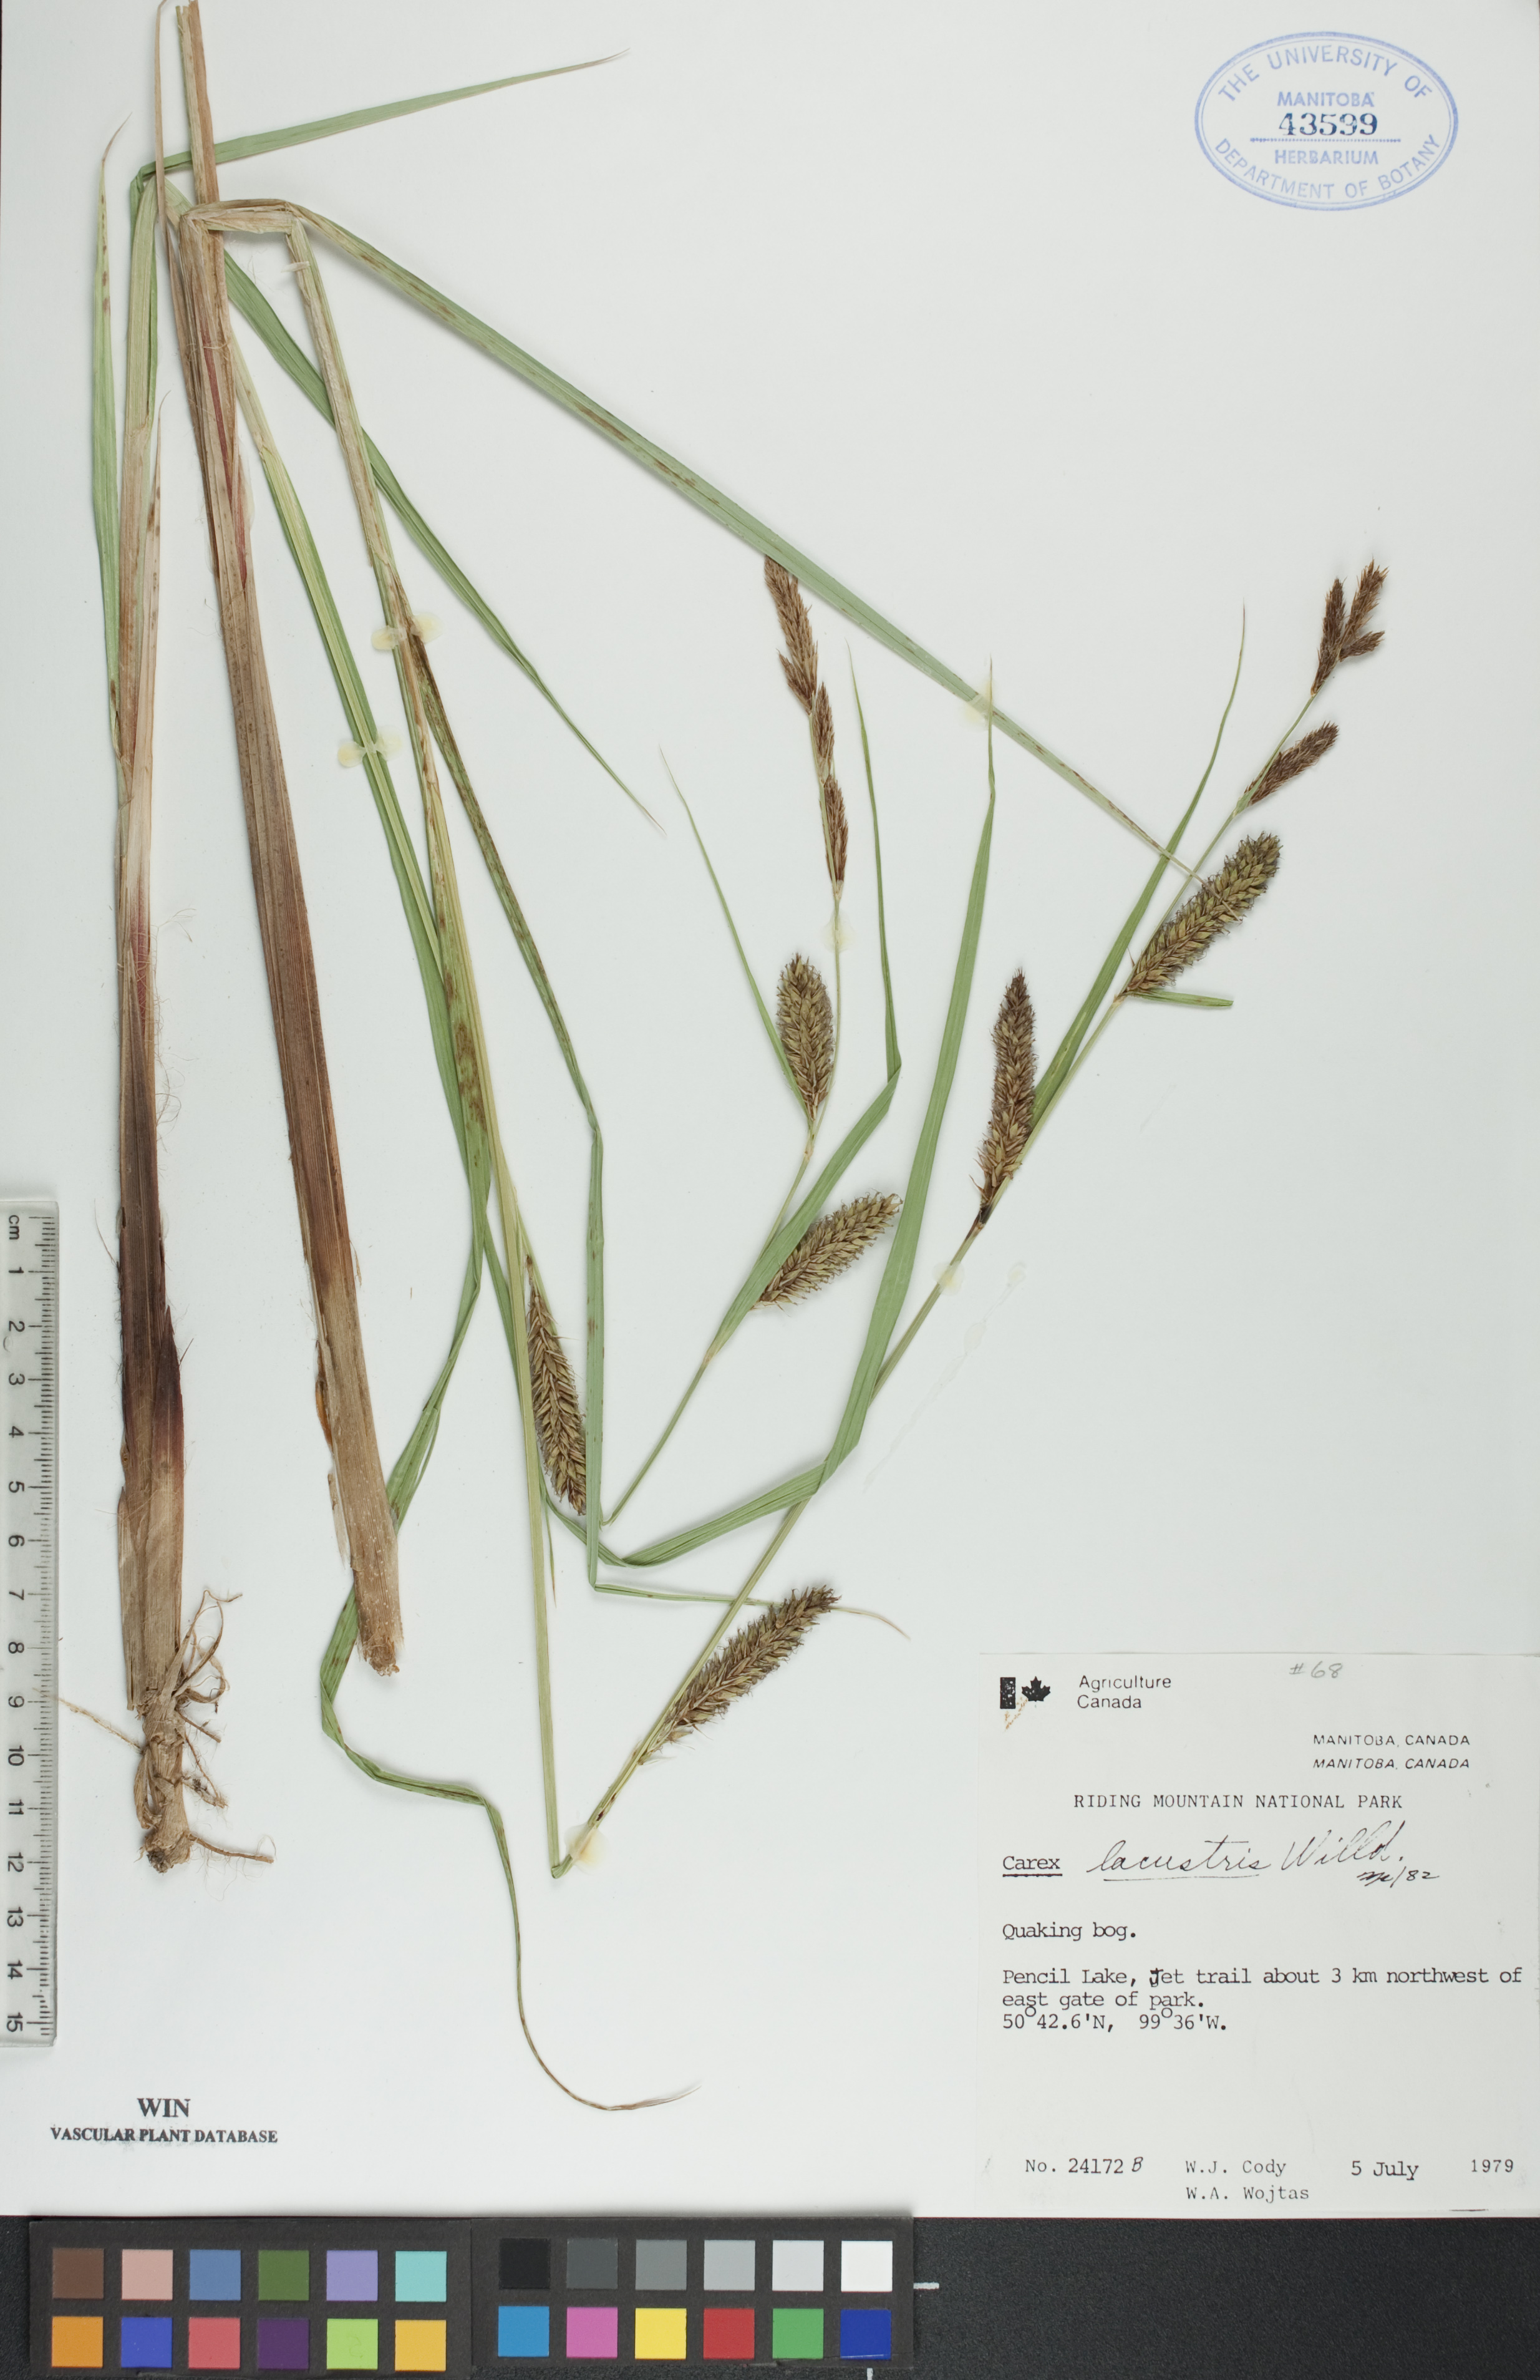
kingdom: Plantae
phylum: Tracheophyta
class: Liliopsida
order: Poales
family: Cyperaceae
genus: Carex
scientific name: Carex lacustris
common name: Common lake sedge
